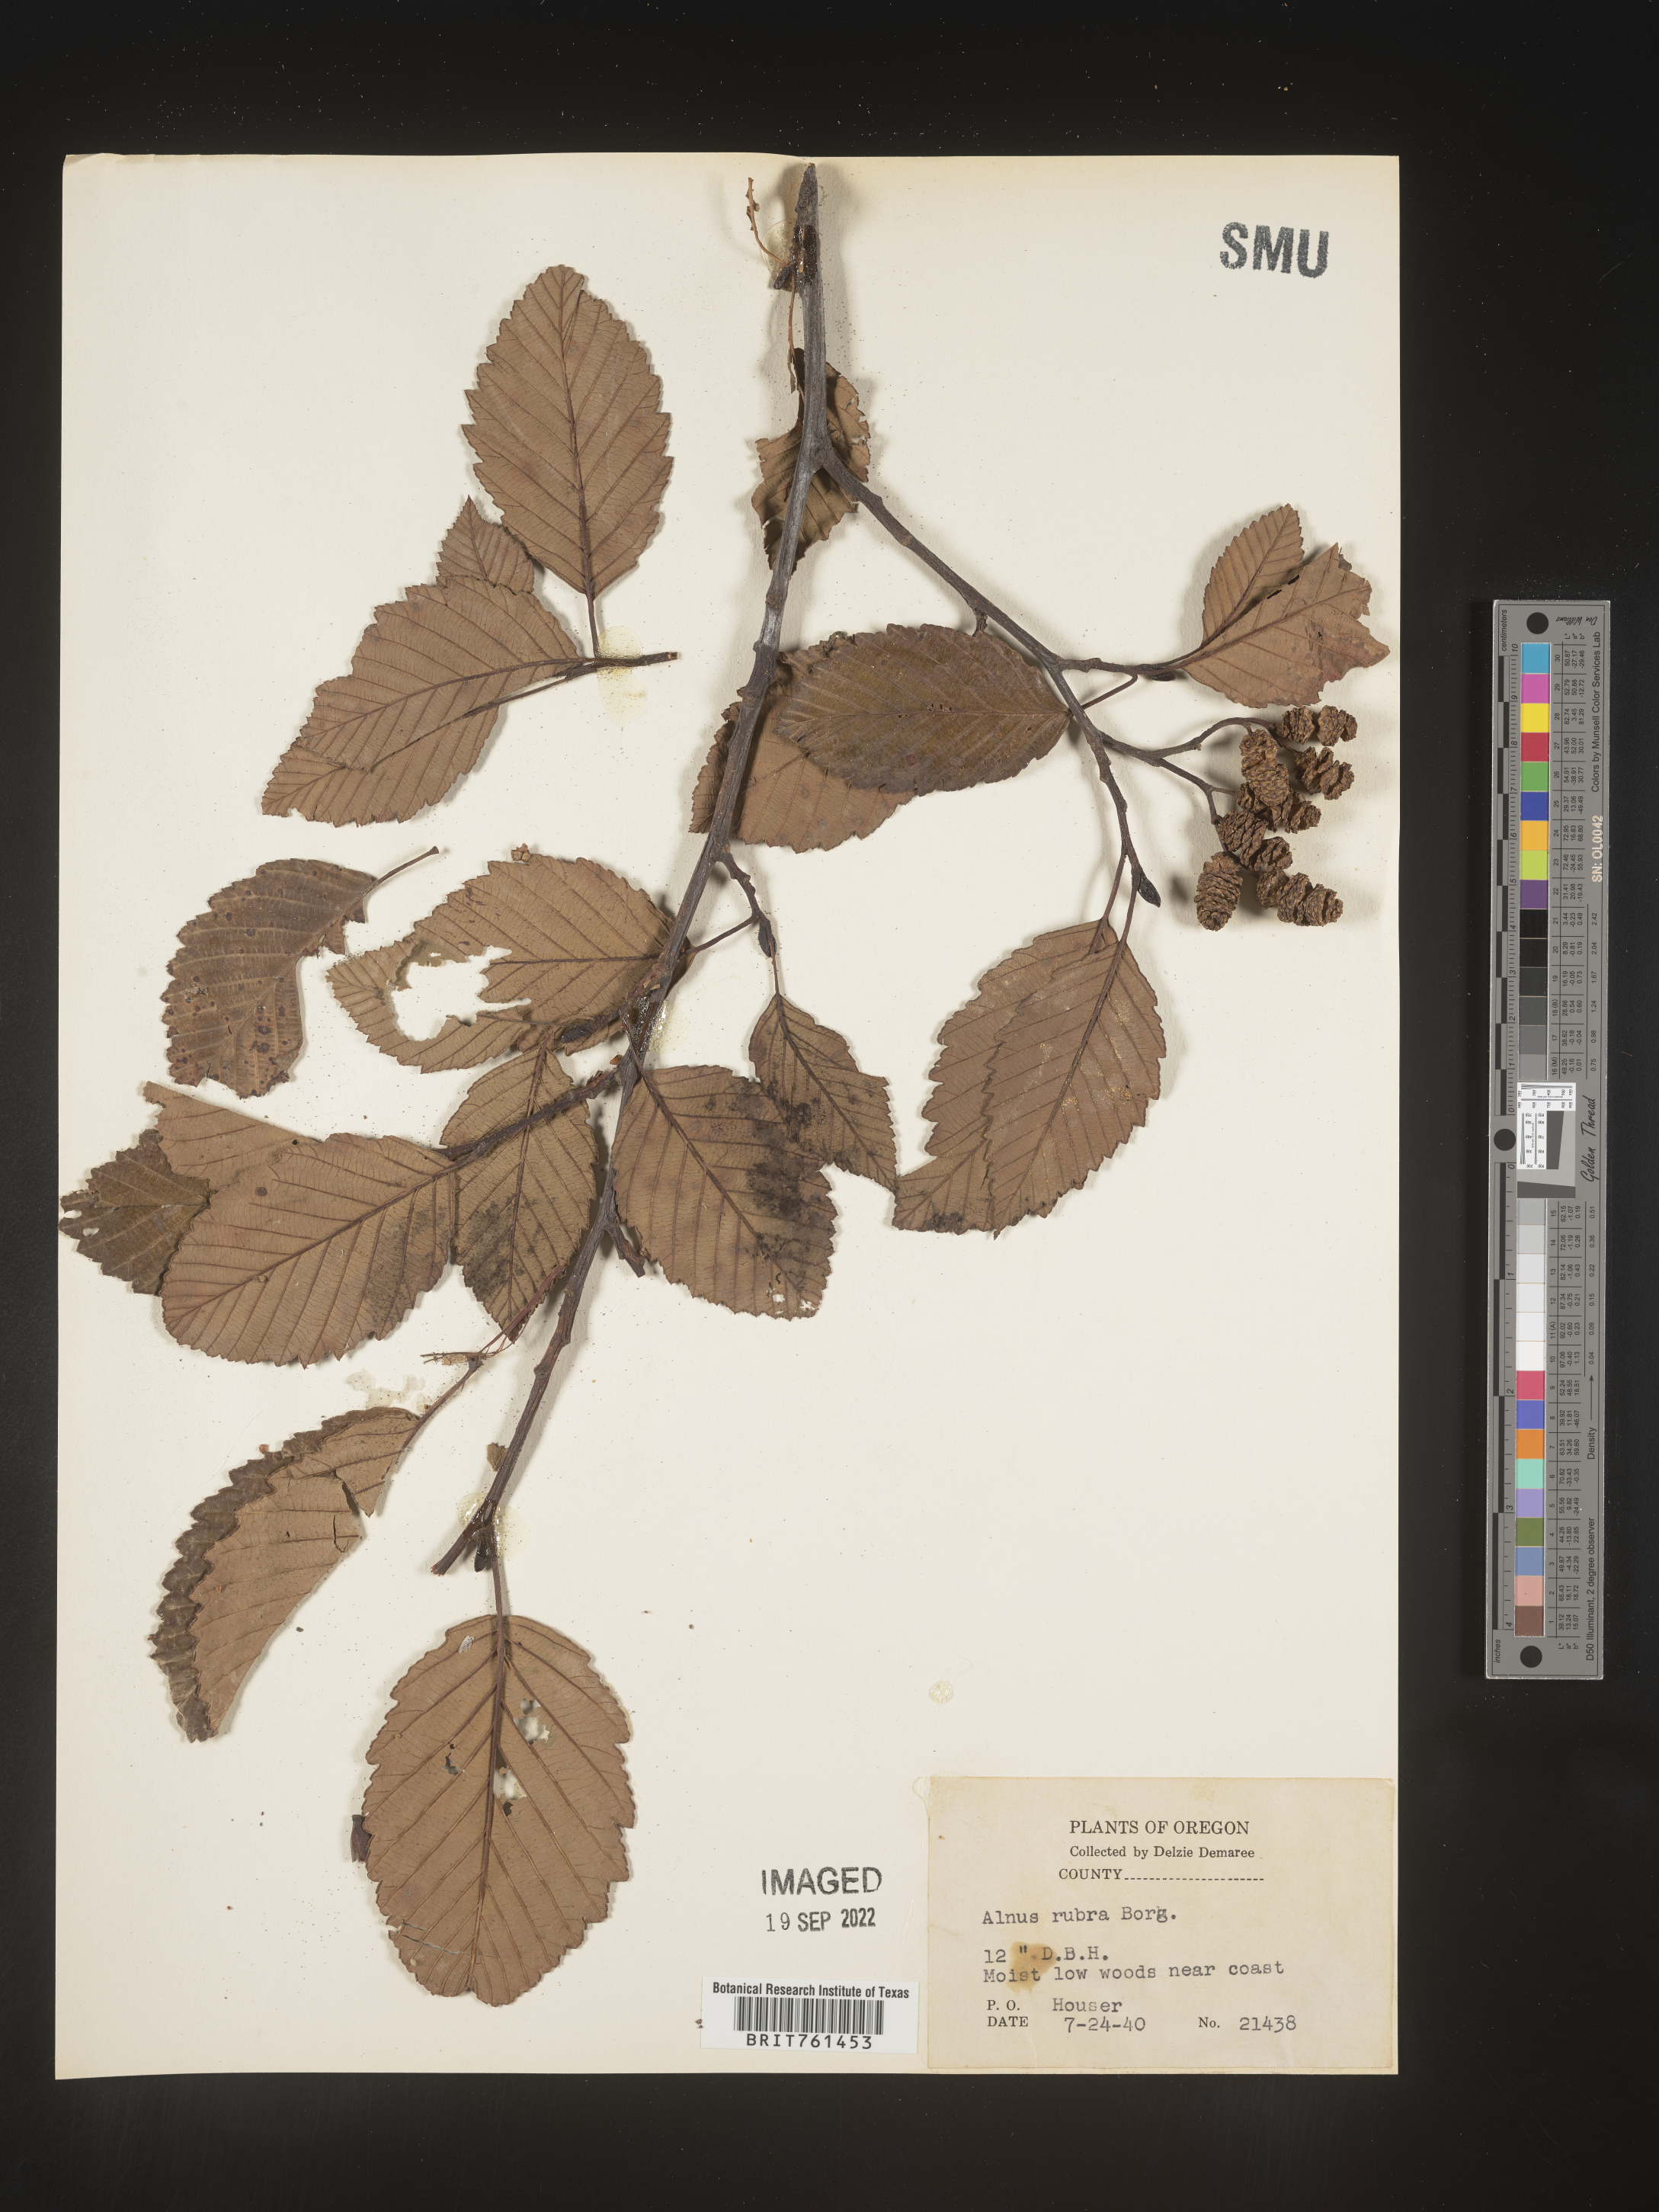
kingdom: Plantae
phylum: Tracheophyta
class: Magnoliopsida
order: Fagales
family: Betulaceae
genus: Alnus
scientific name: Alnus rubra
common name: Red alder
